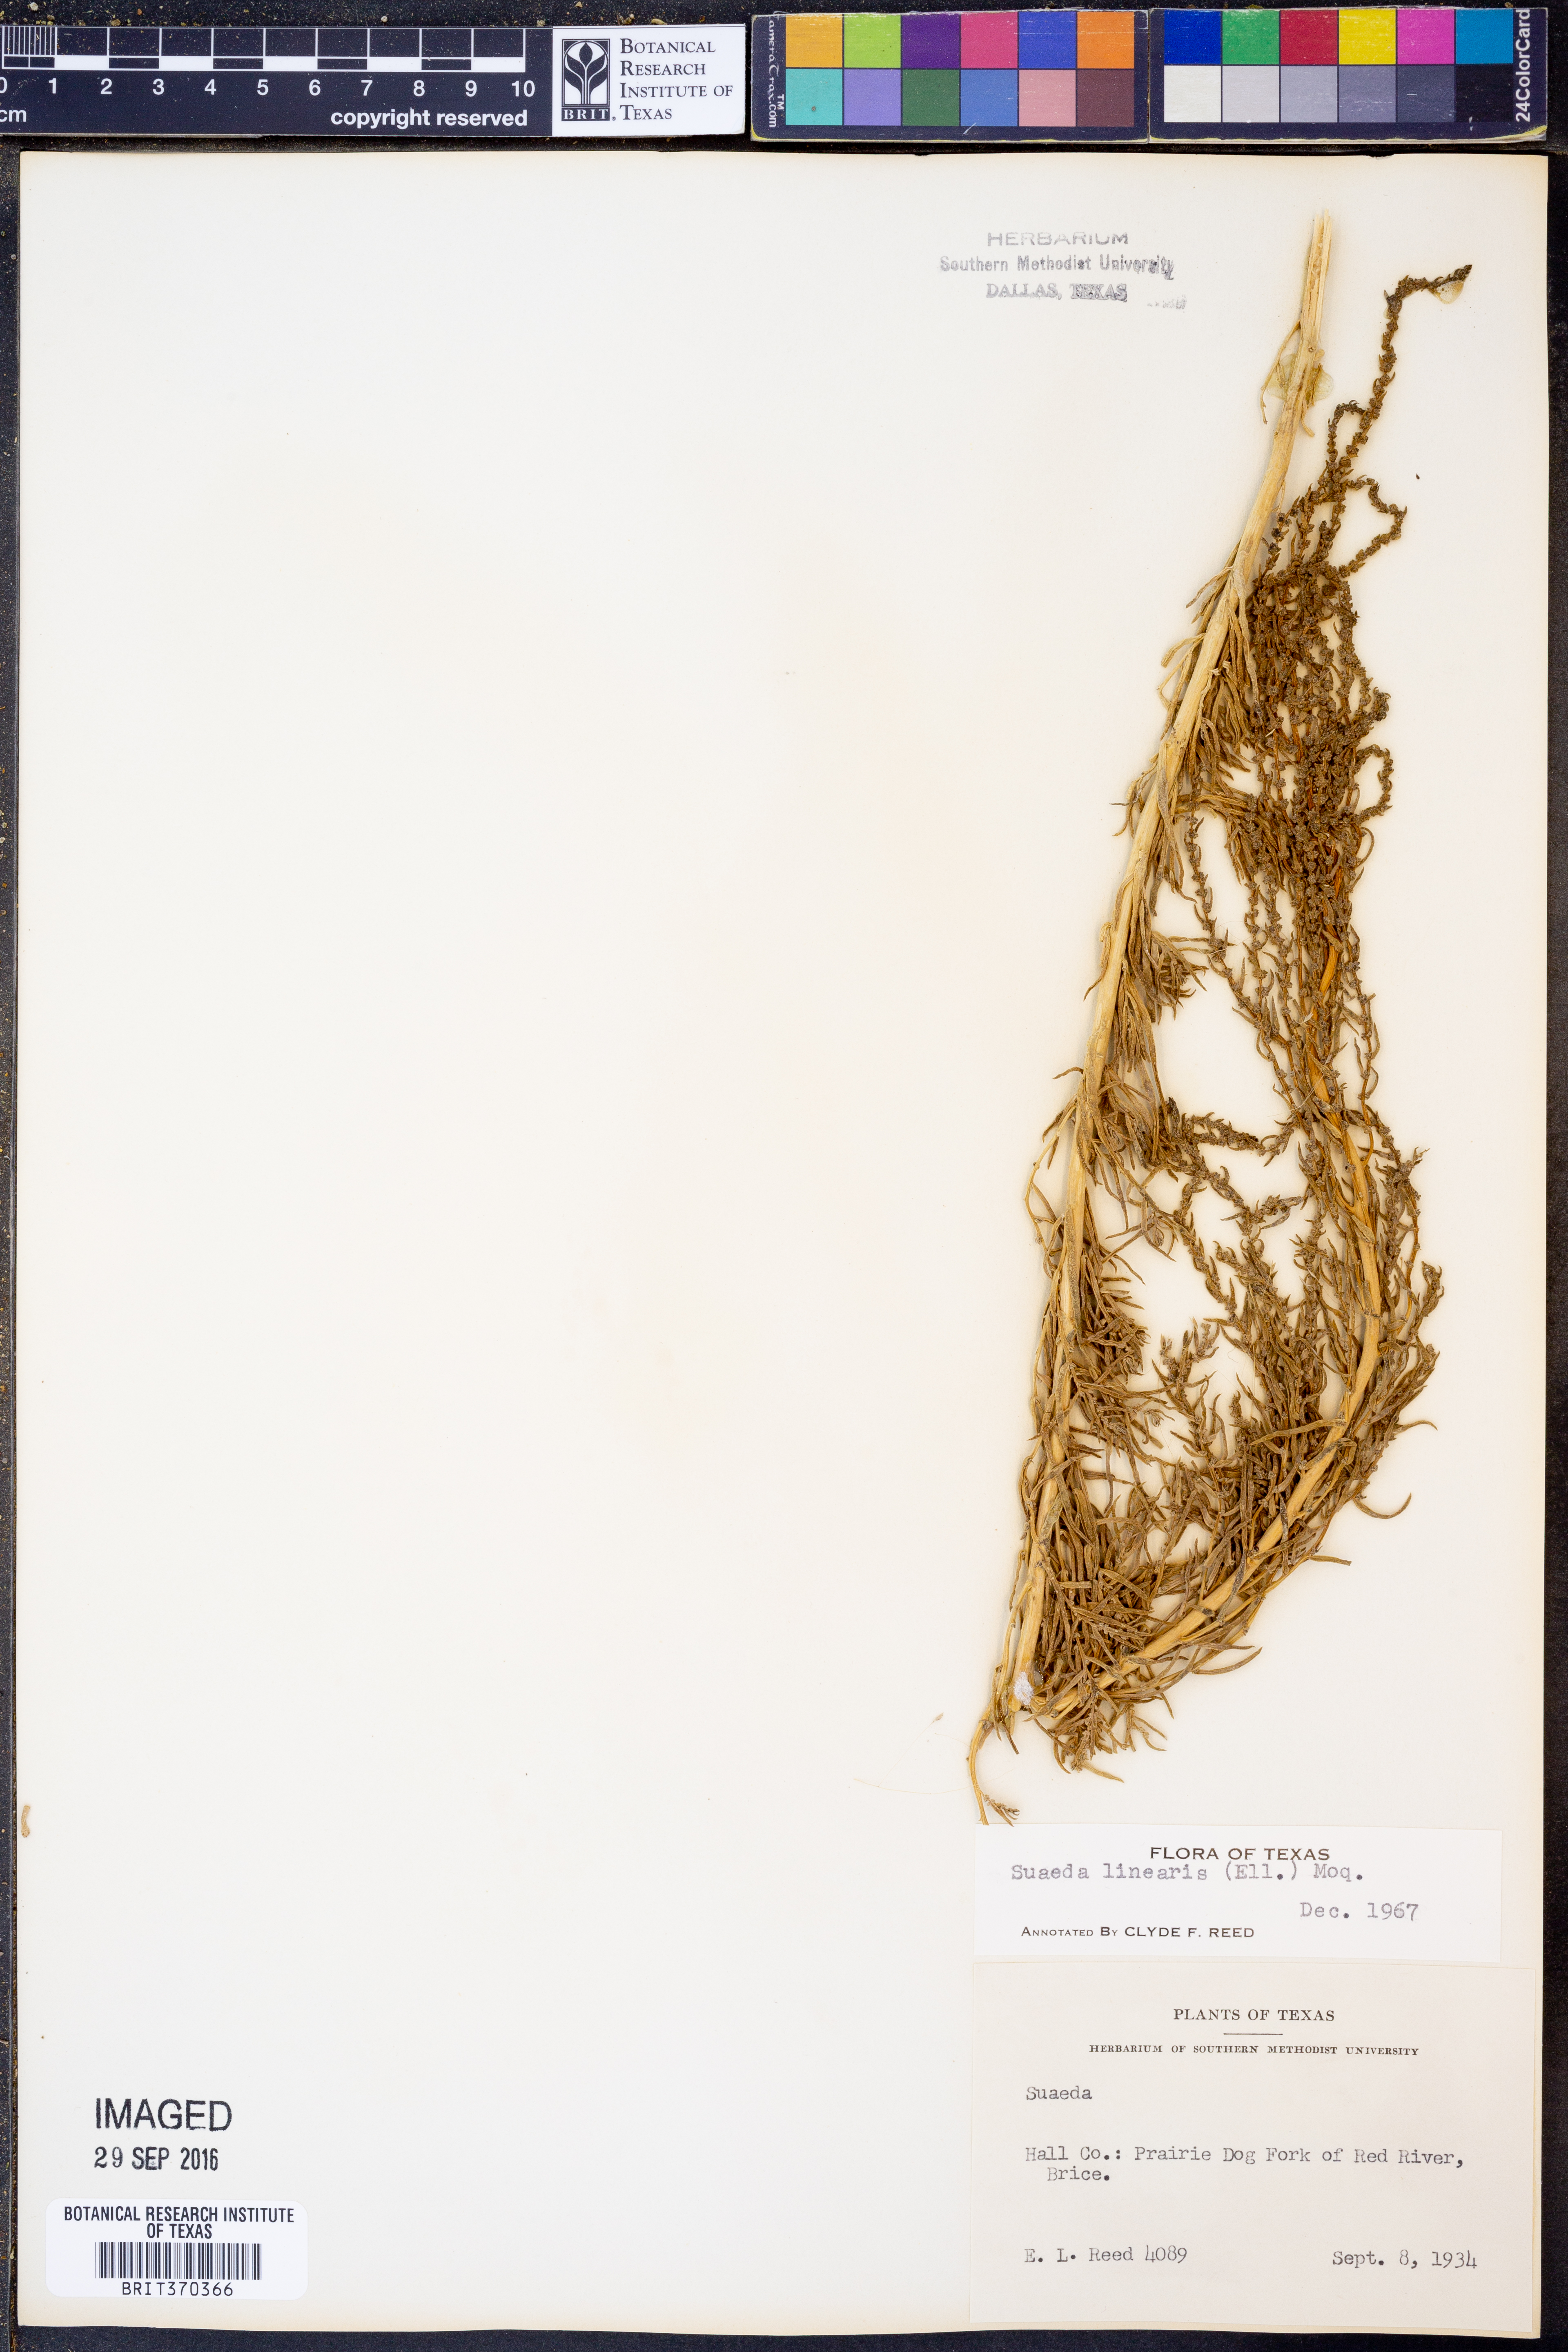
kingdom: Plantae
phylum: Tracheophyta
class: Magnoliopsida
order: Caryophyllales
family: Amaranthaceae
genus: Suaeda
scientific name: Suaeda linearis
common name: Annual seepweed
